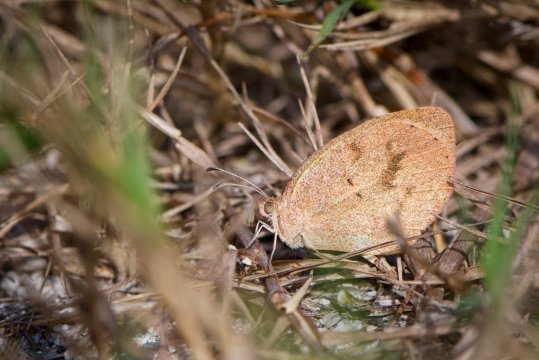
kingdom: Animalia
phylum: Arthropoda
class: Insecta
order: Lepidoptera
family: Pieridae
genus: Eurema
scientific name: Eurema daira
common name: Barred Yellow
